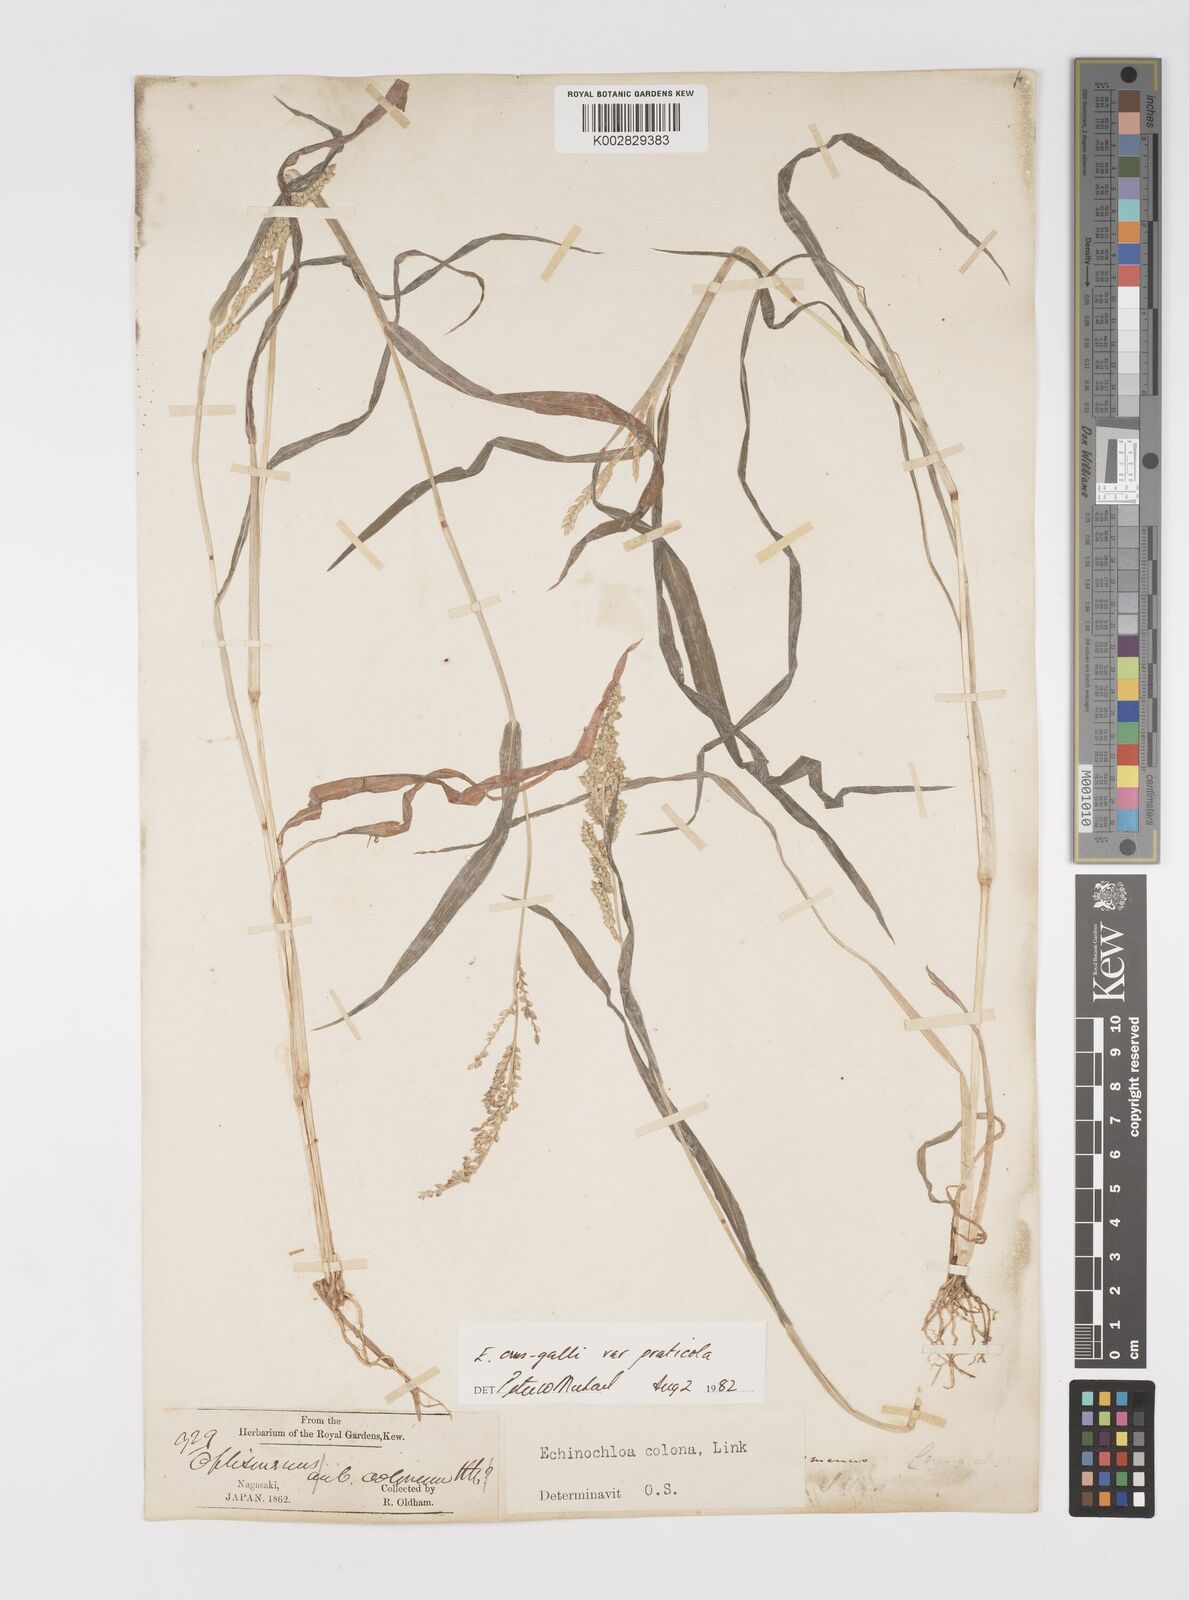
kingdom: Plantae
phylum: Tracheophyta
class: Liliopsida
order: Poales
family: Poaceae
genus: Echinochloa
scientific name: Echinochloa crus-galli
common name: Cockspur
